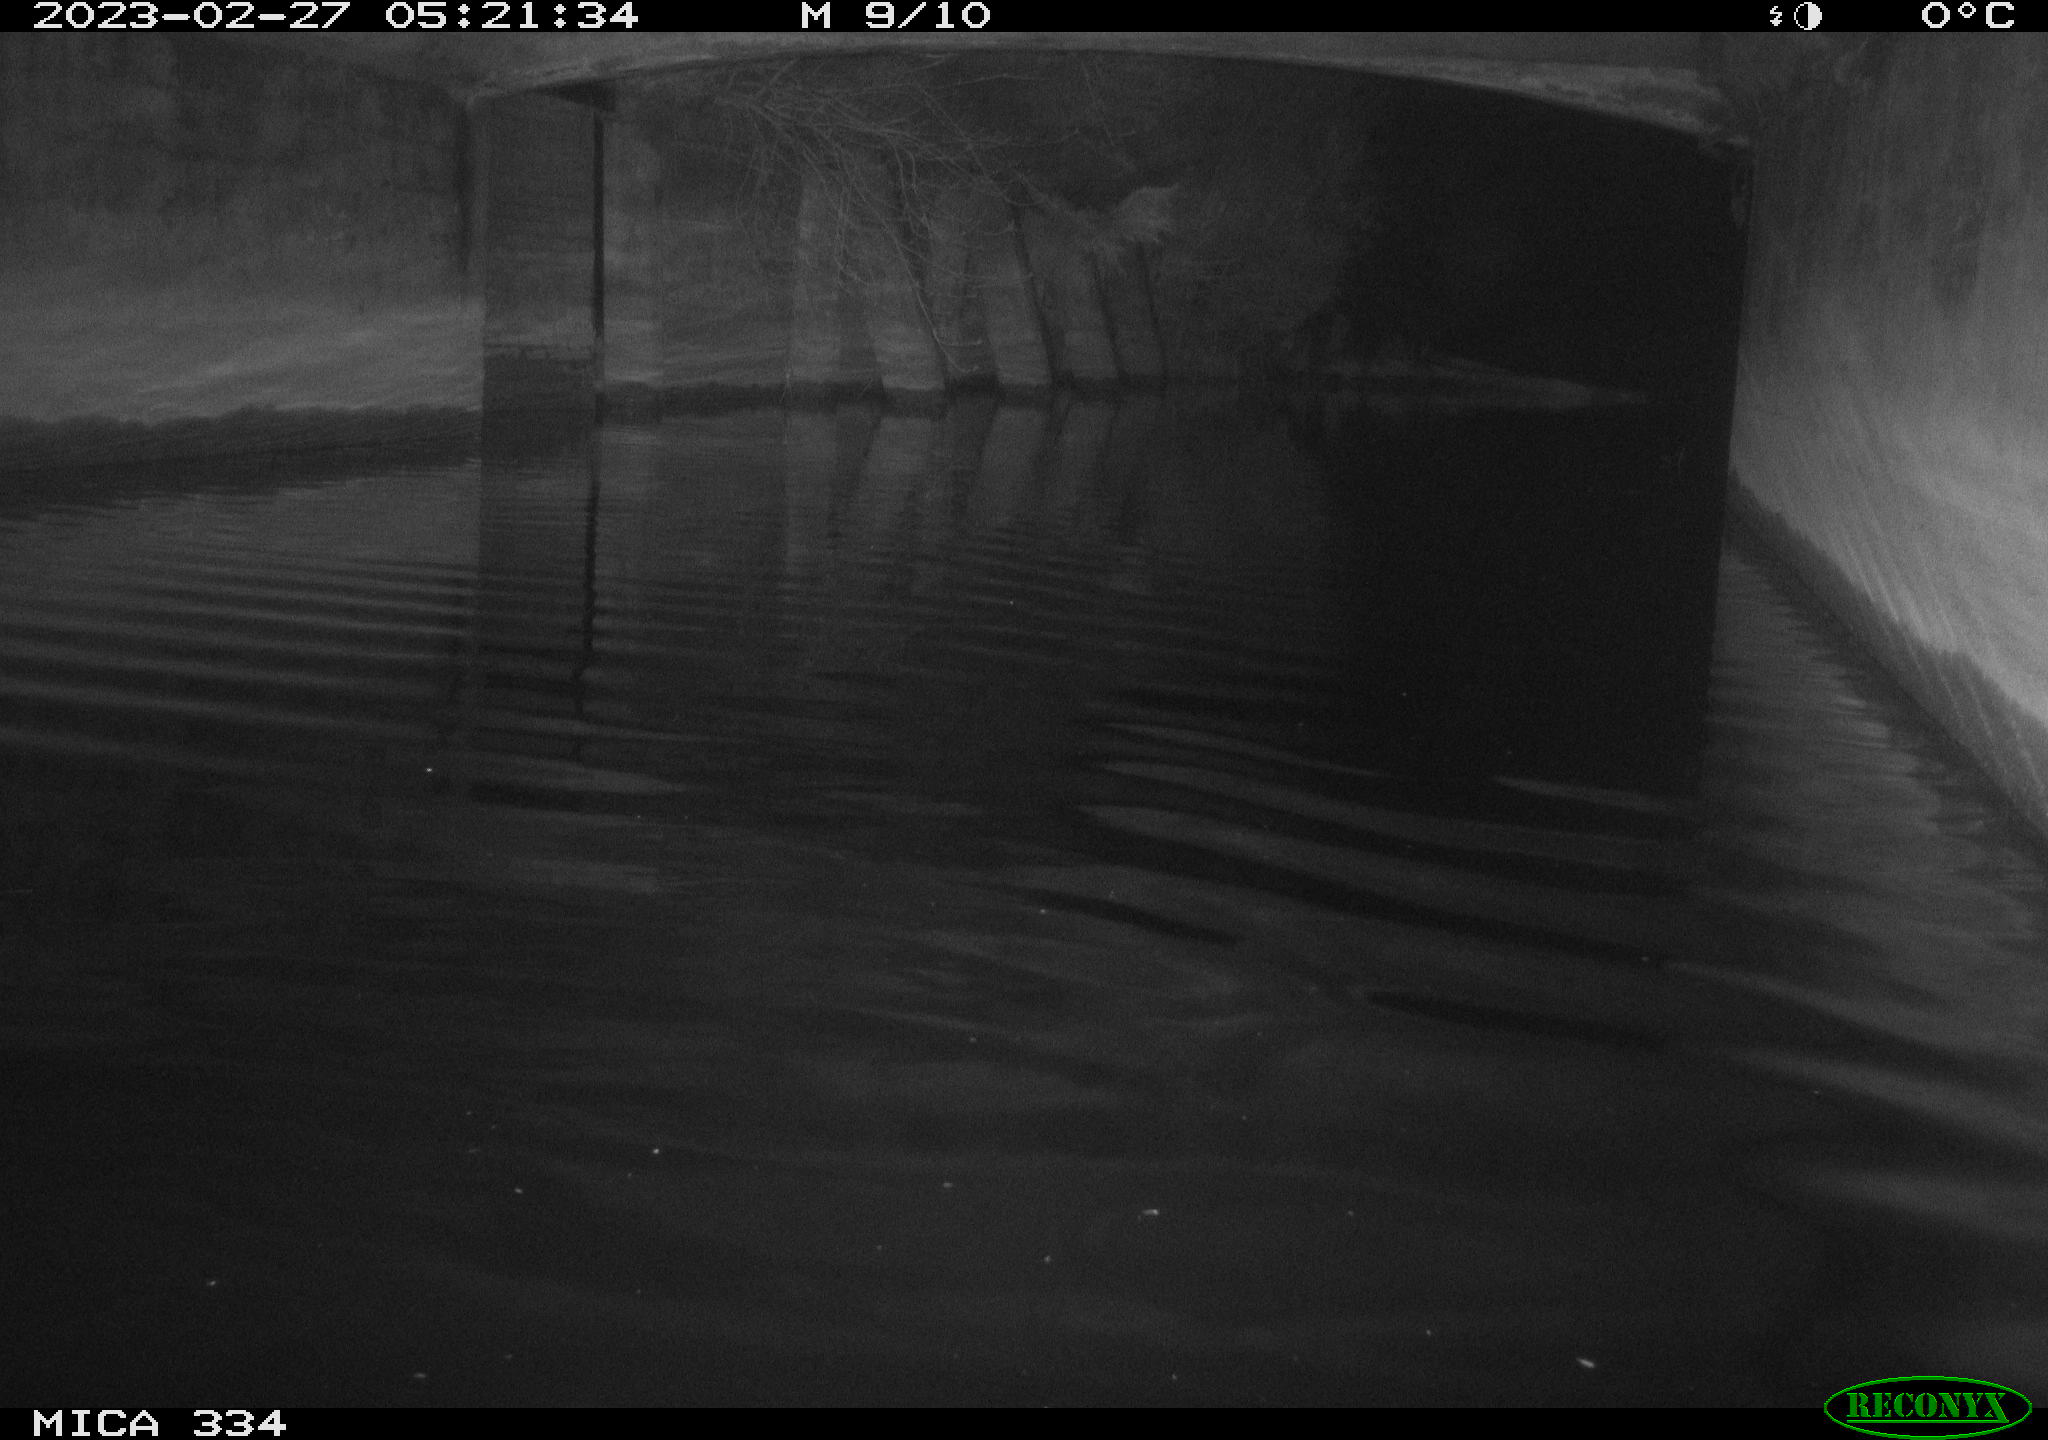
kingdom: Animalia
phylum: Chordata
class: Aves
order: Anseriformes
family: Anatidae
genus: Anas
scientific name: Anas
